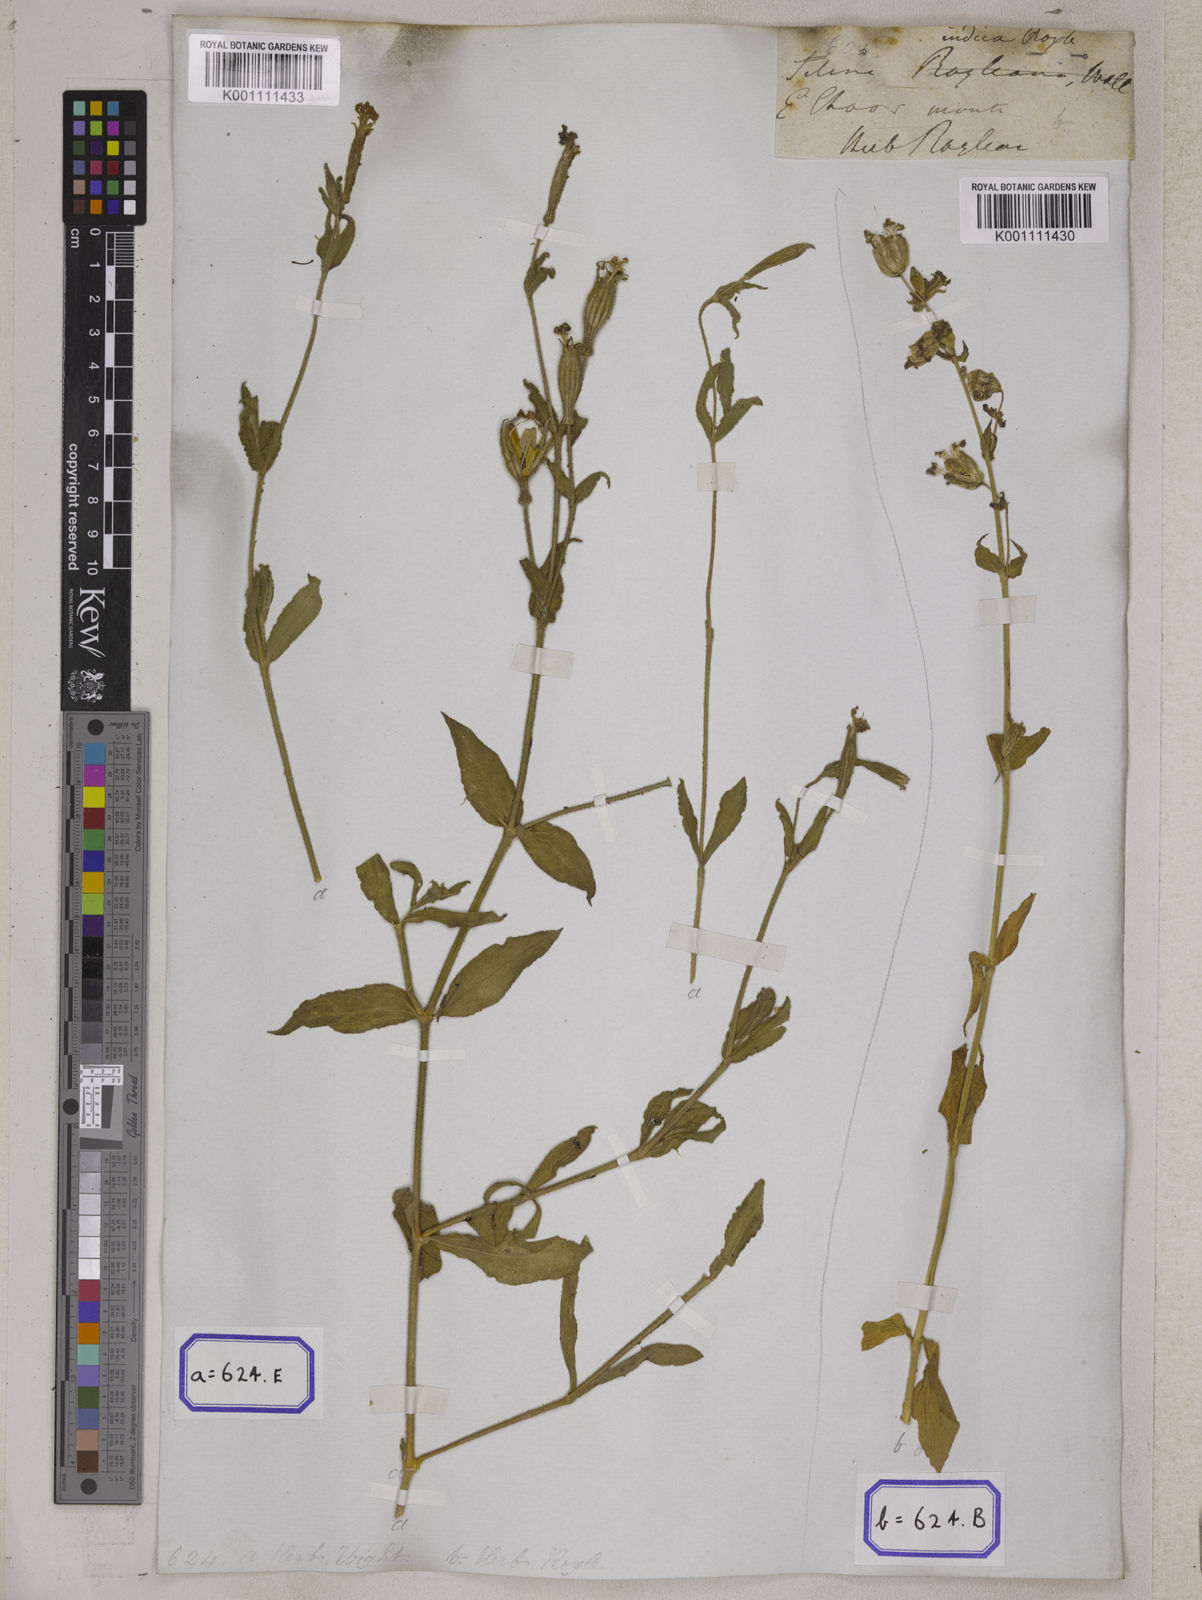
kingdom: Plantae
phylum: Tracheophyta
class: Magnoliopsida
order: Caryophyllales
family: Caryophyllaceae
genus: Silene
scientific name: Silene
